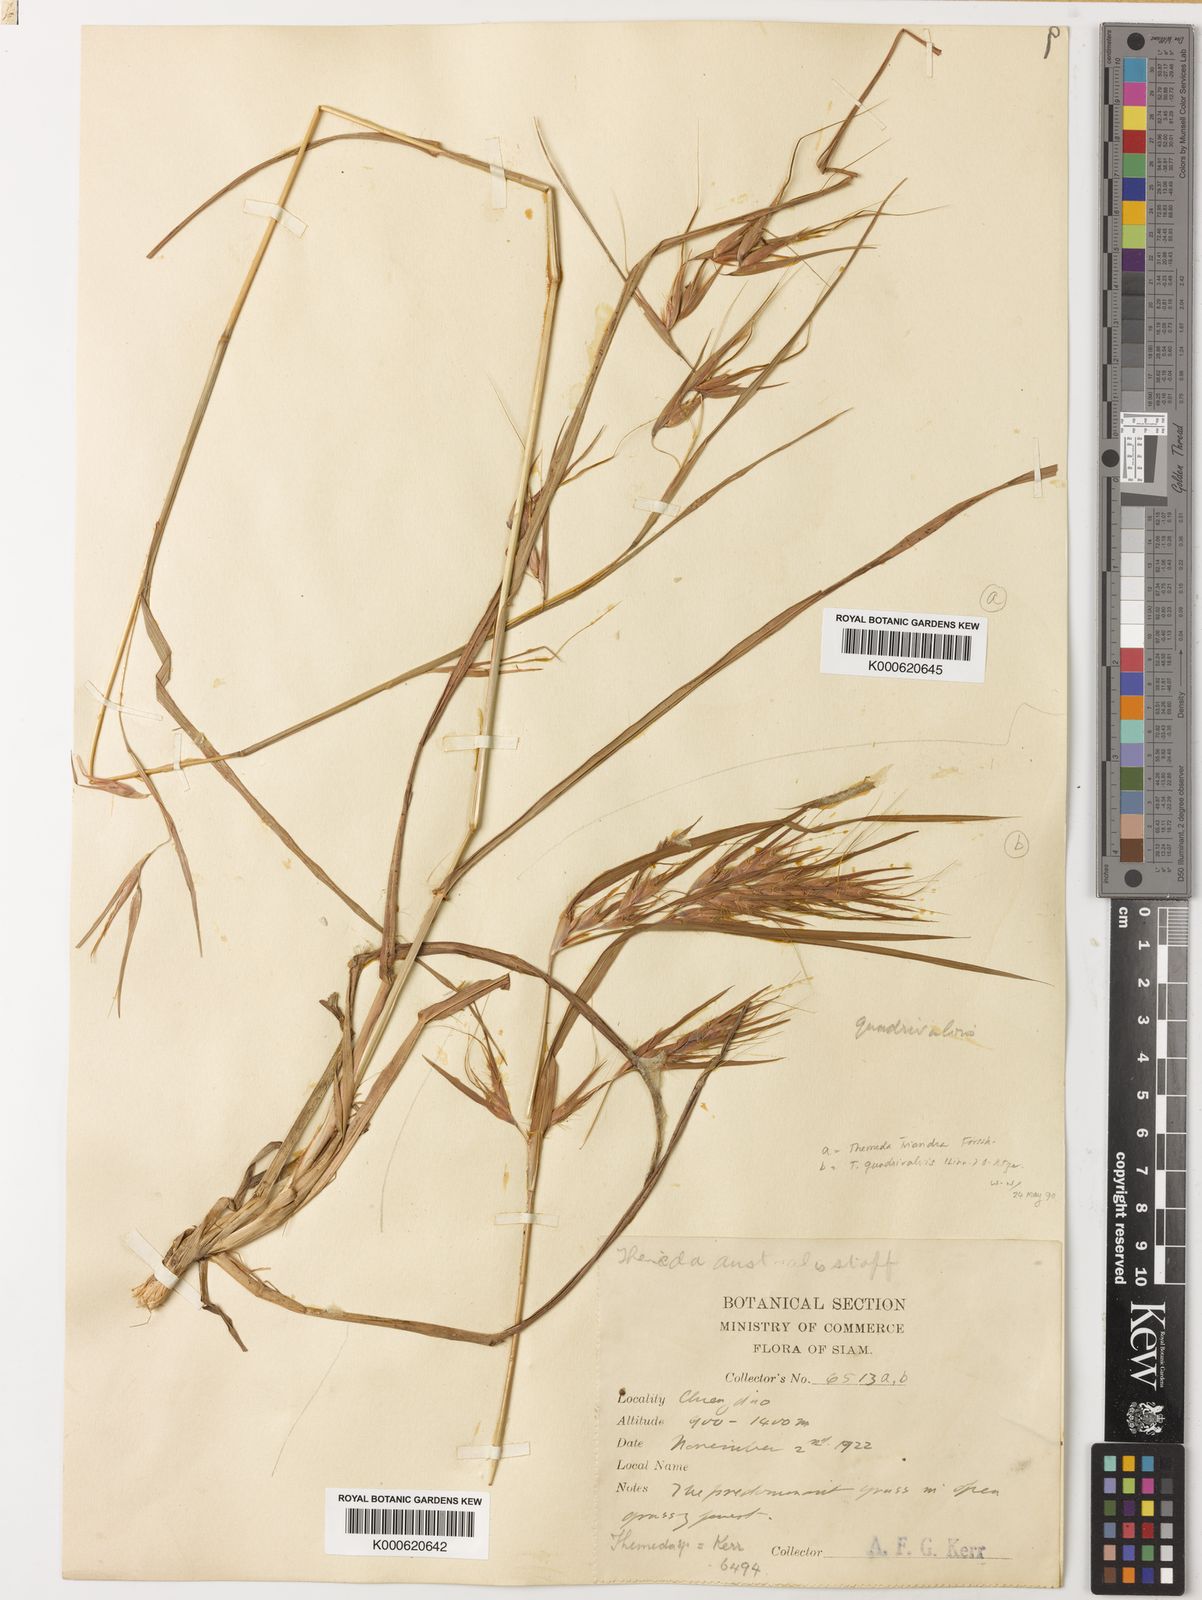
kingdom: Plantae
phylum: Tracheophyta
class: Liliopsida
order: Poales
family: Poaceae
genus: Themeda
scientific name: Themeda triandra
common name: Kangaroo grass
